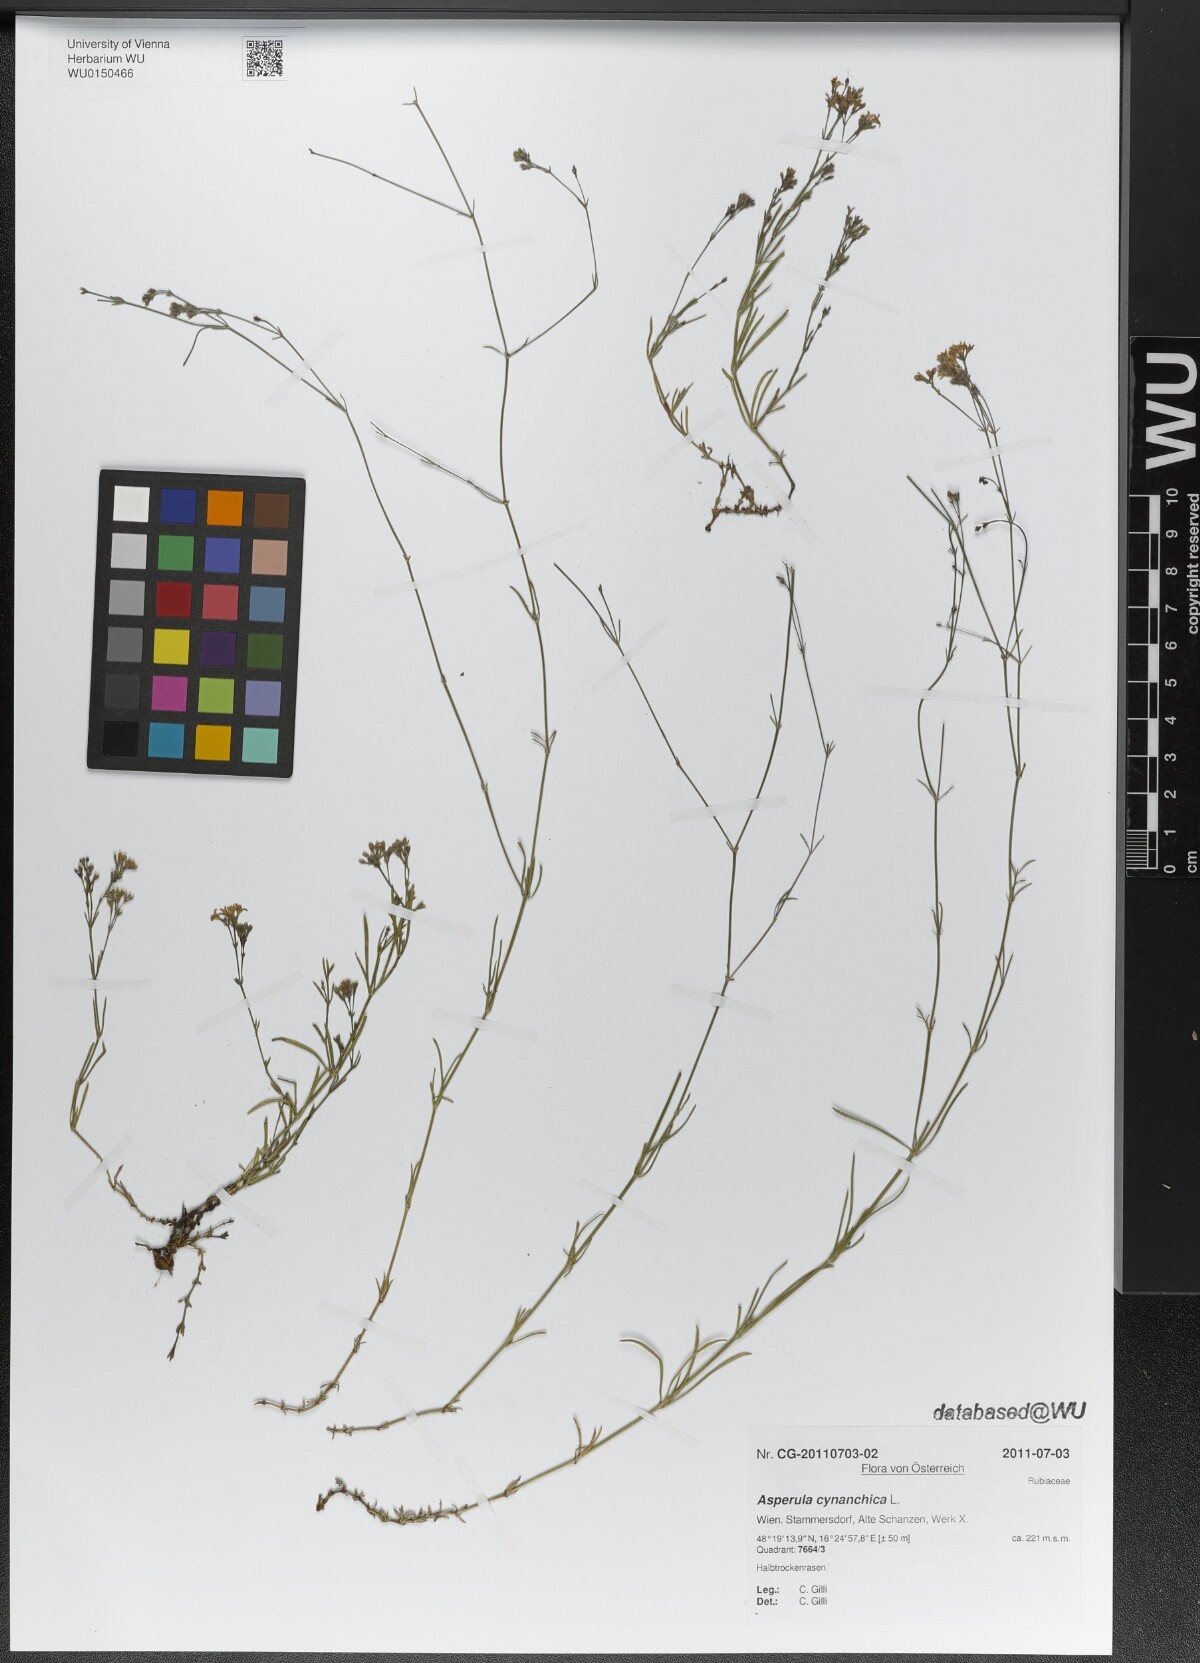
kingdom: Plantae
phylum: Tracheophyta
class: Magnoliopsida
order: Gentianales
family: Rubiaceae
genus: Cynanchica
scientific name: Cynanchica pyrenaica
